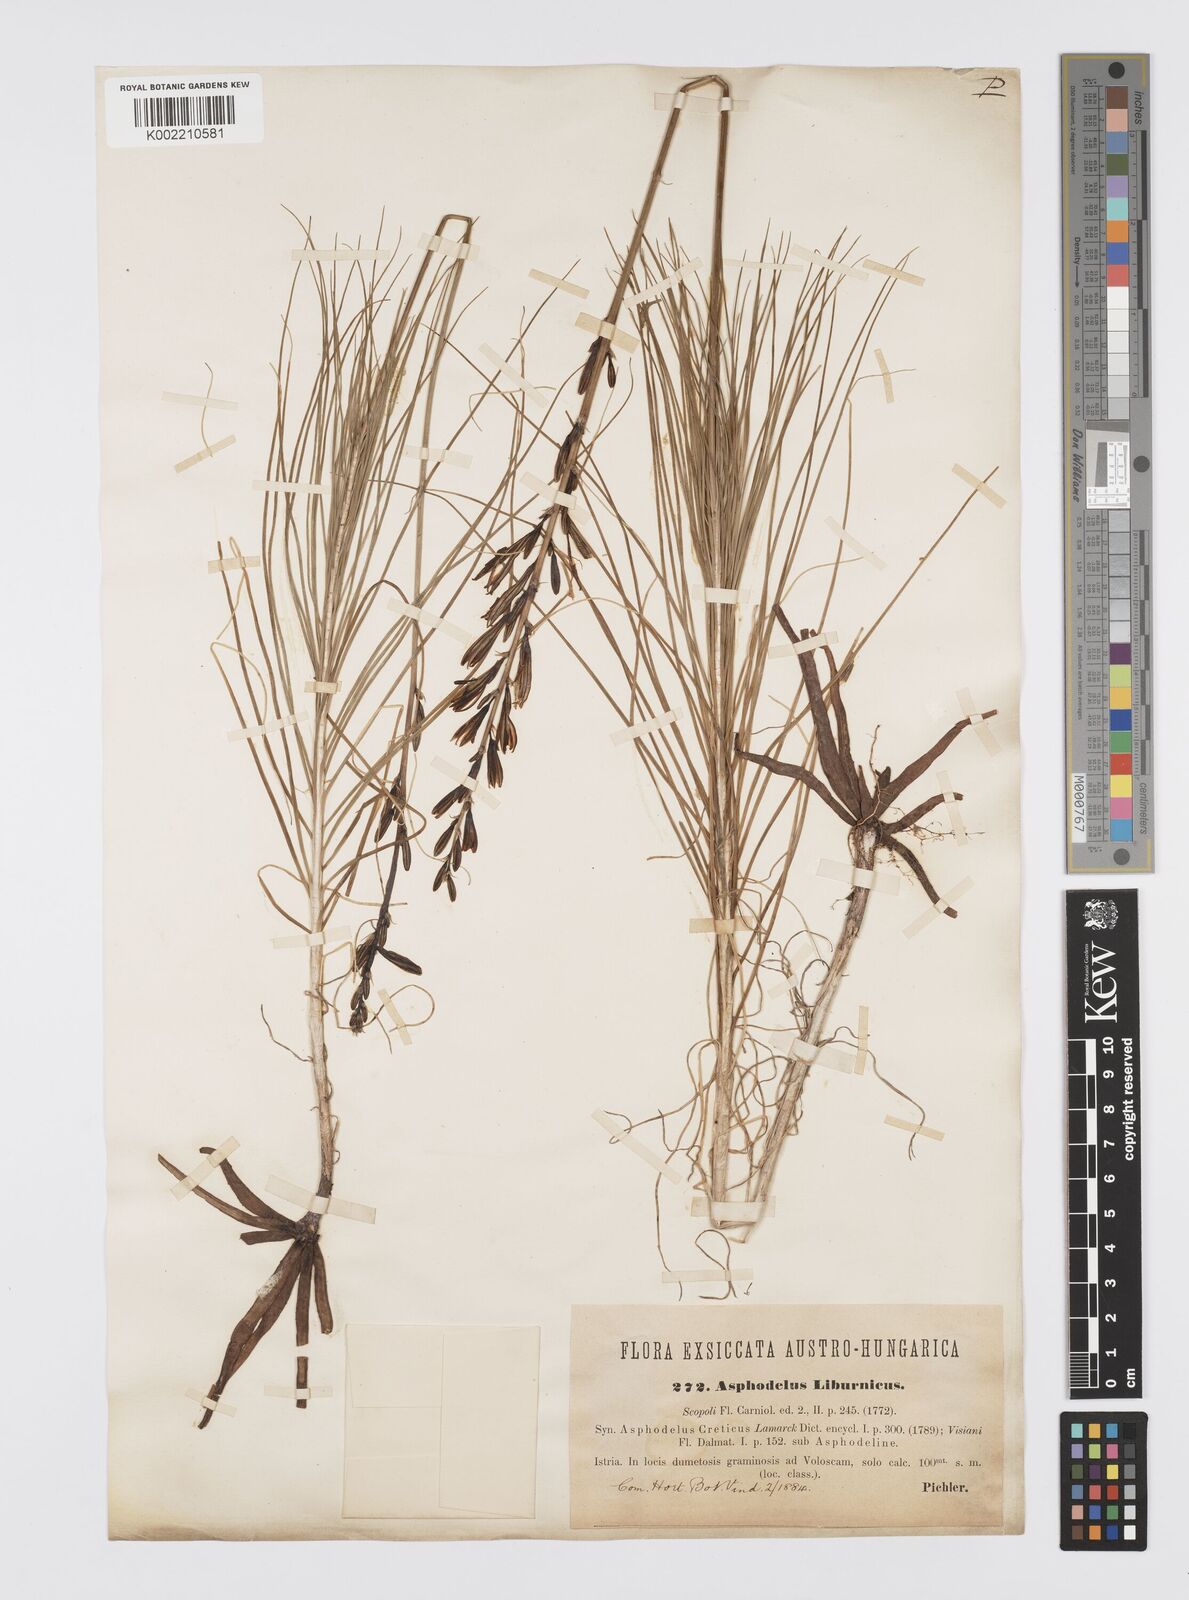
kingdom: Plantae
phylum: Tracheophyta
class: Liliopsida
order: Asparagales
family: Asphodelaceae
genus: Asphodeline
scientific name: Asphodeline liburnica
